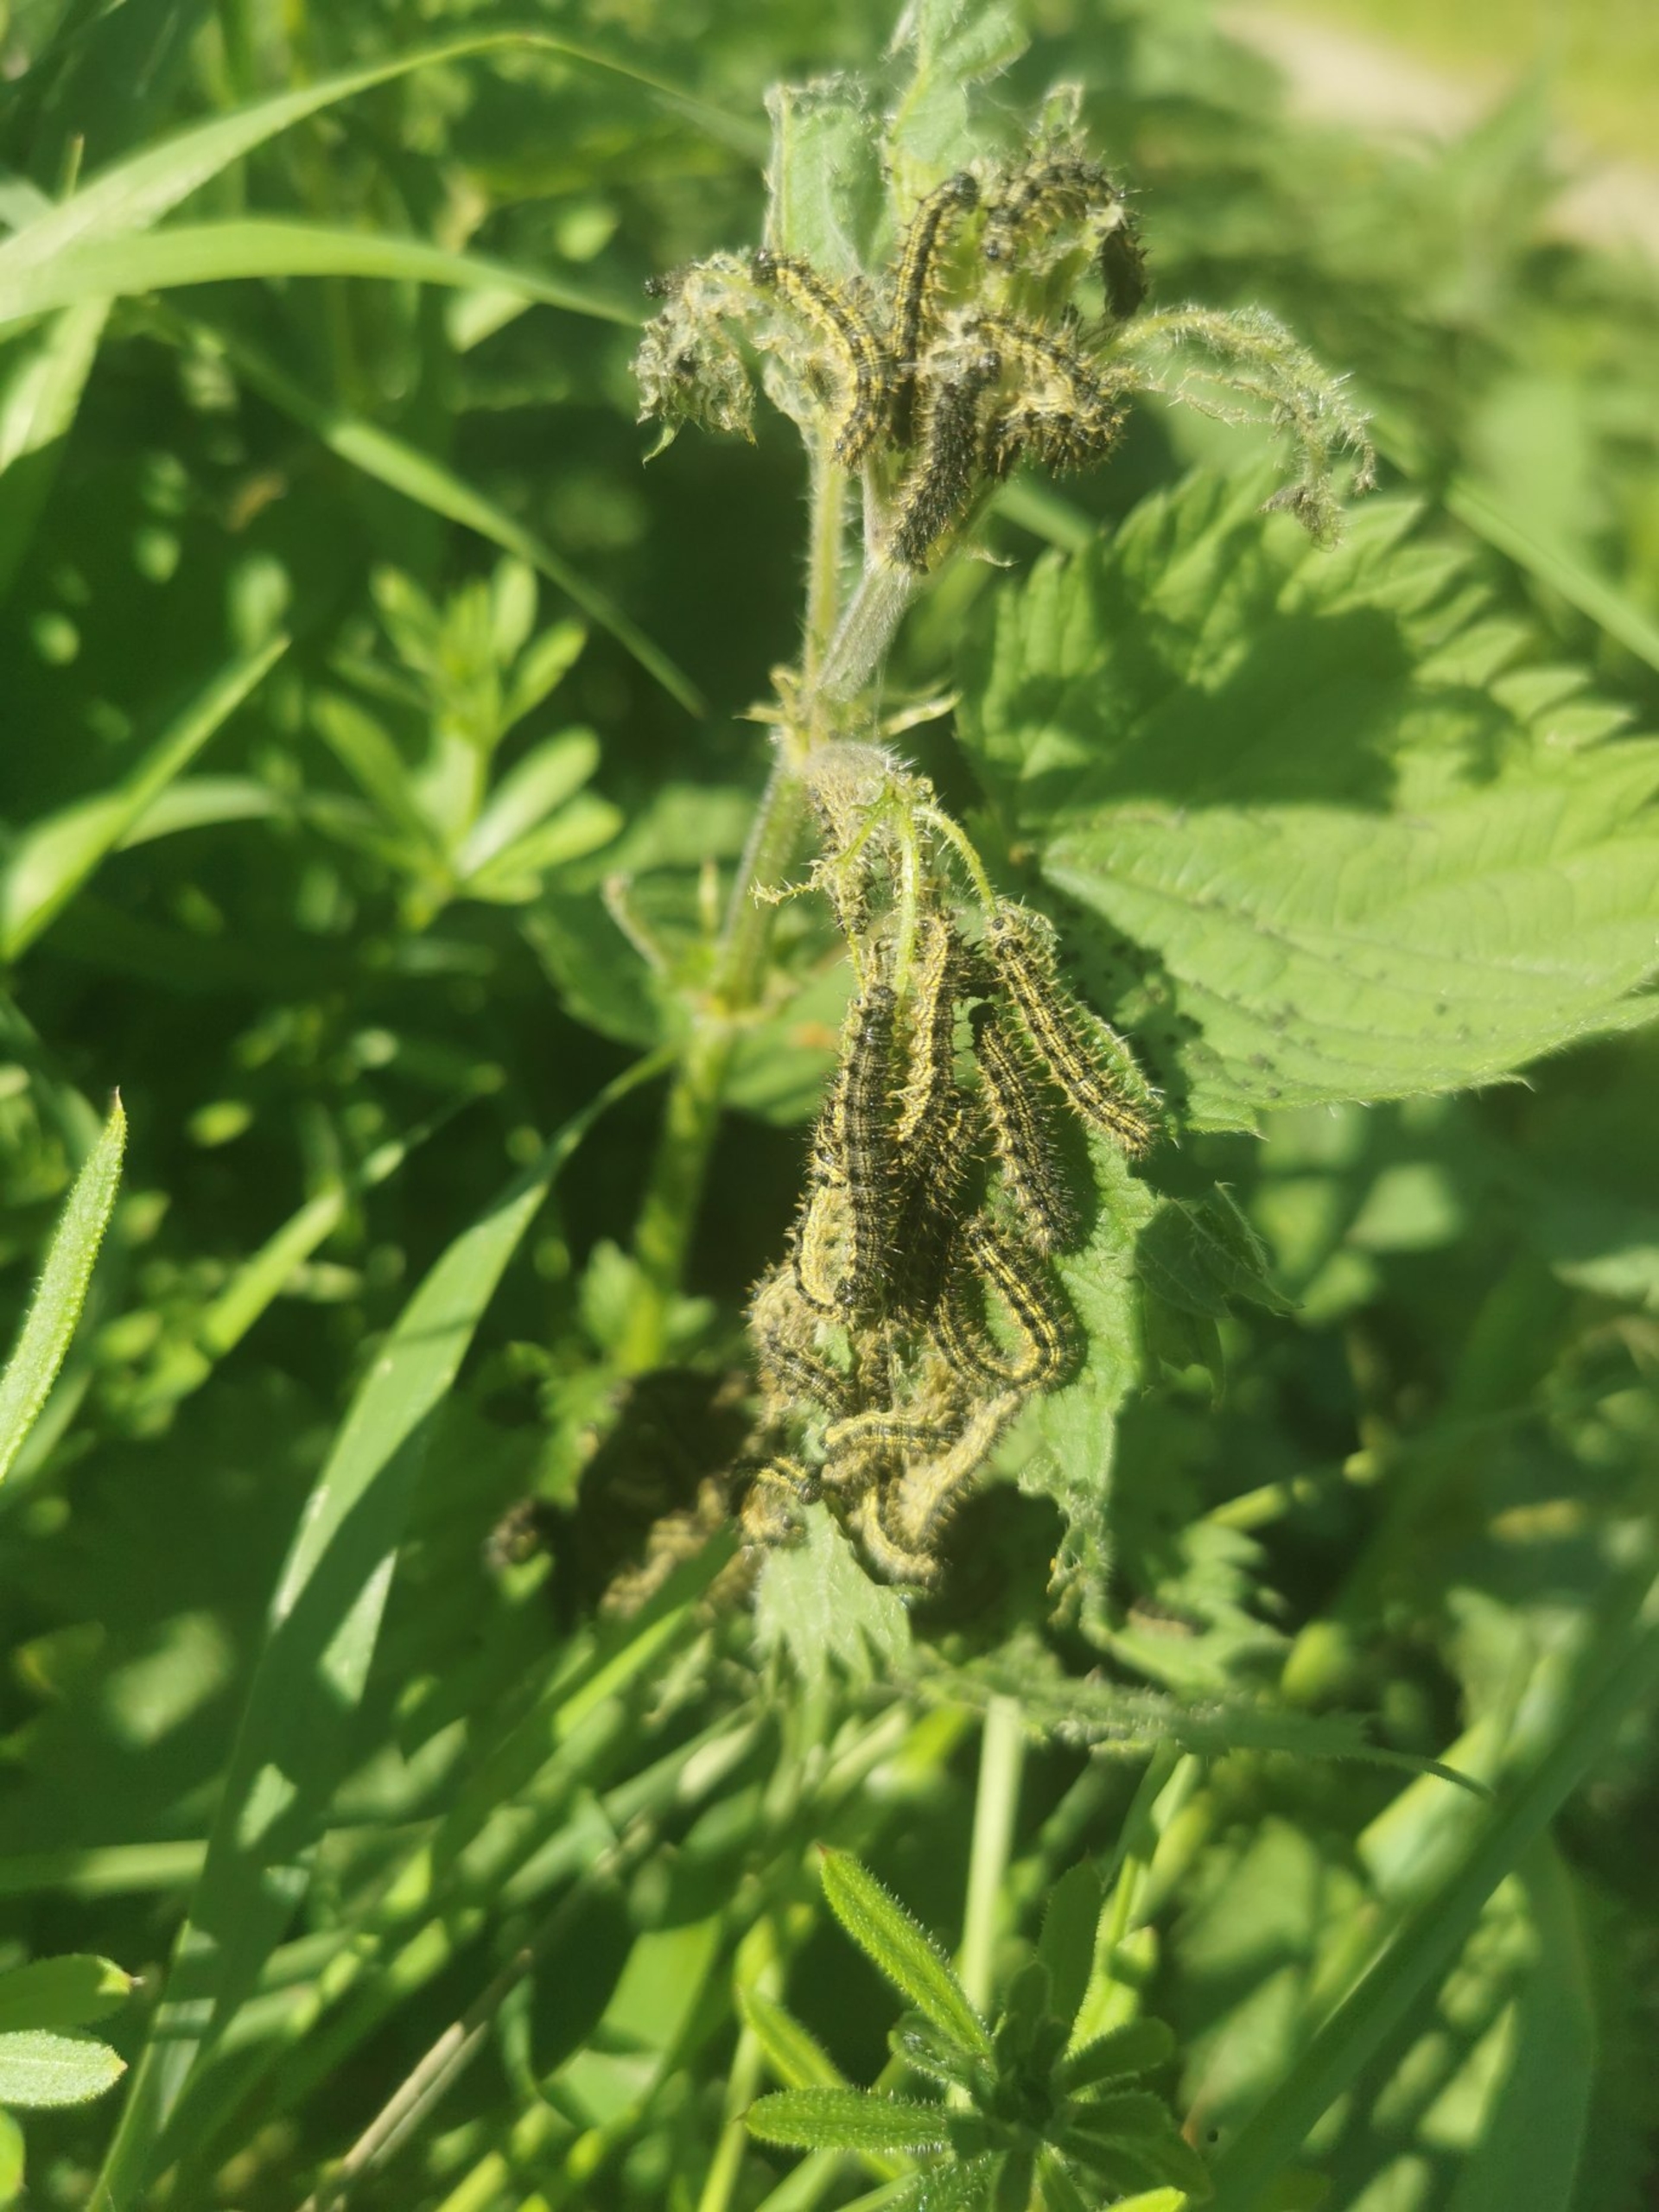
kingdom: Animalia
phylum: Arthropoda
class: Insecta
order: Lepidoptera
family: Nymphalidae
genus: Aglais
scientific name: Aglais urticae
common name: Nældens takvinge
